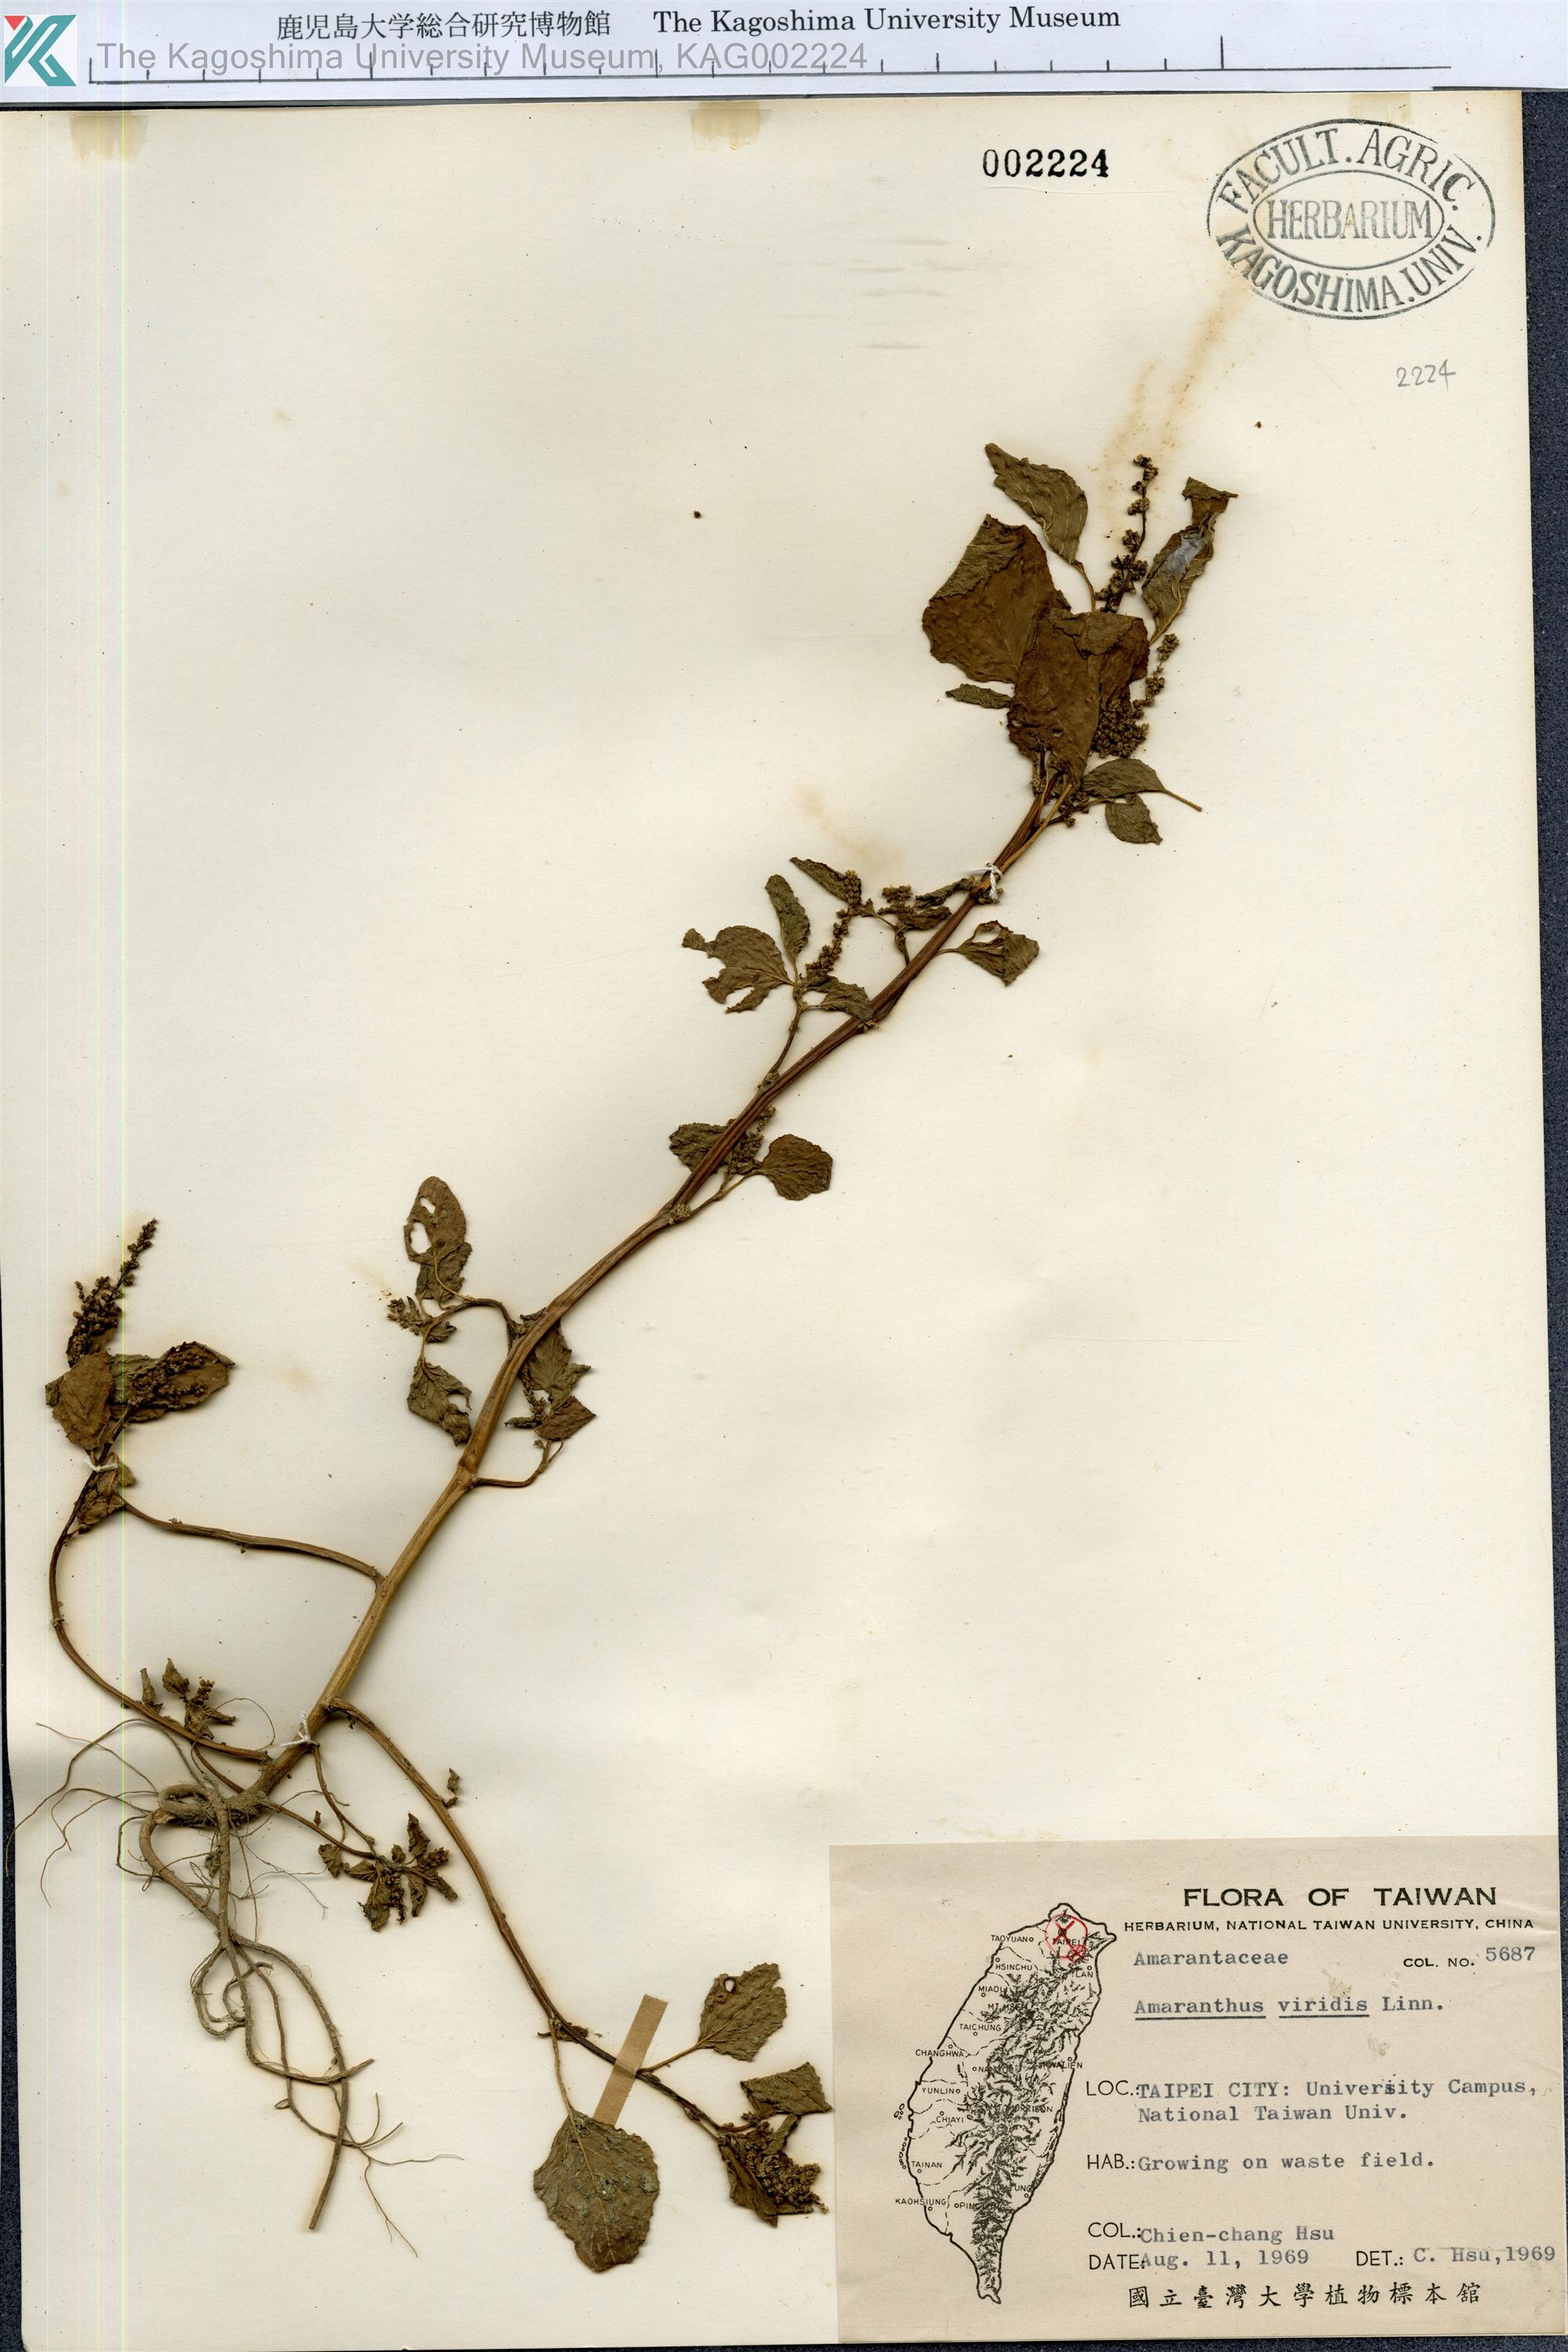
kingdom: Plantae
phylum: Tracheophyta
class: Magnoliopsida
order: Caryophyllales
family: Amaranthaceae
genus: Amaranthus
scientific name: Amaranthus viridis
